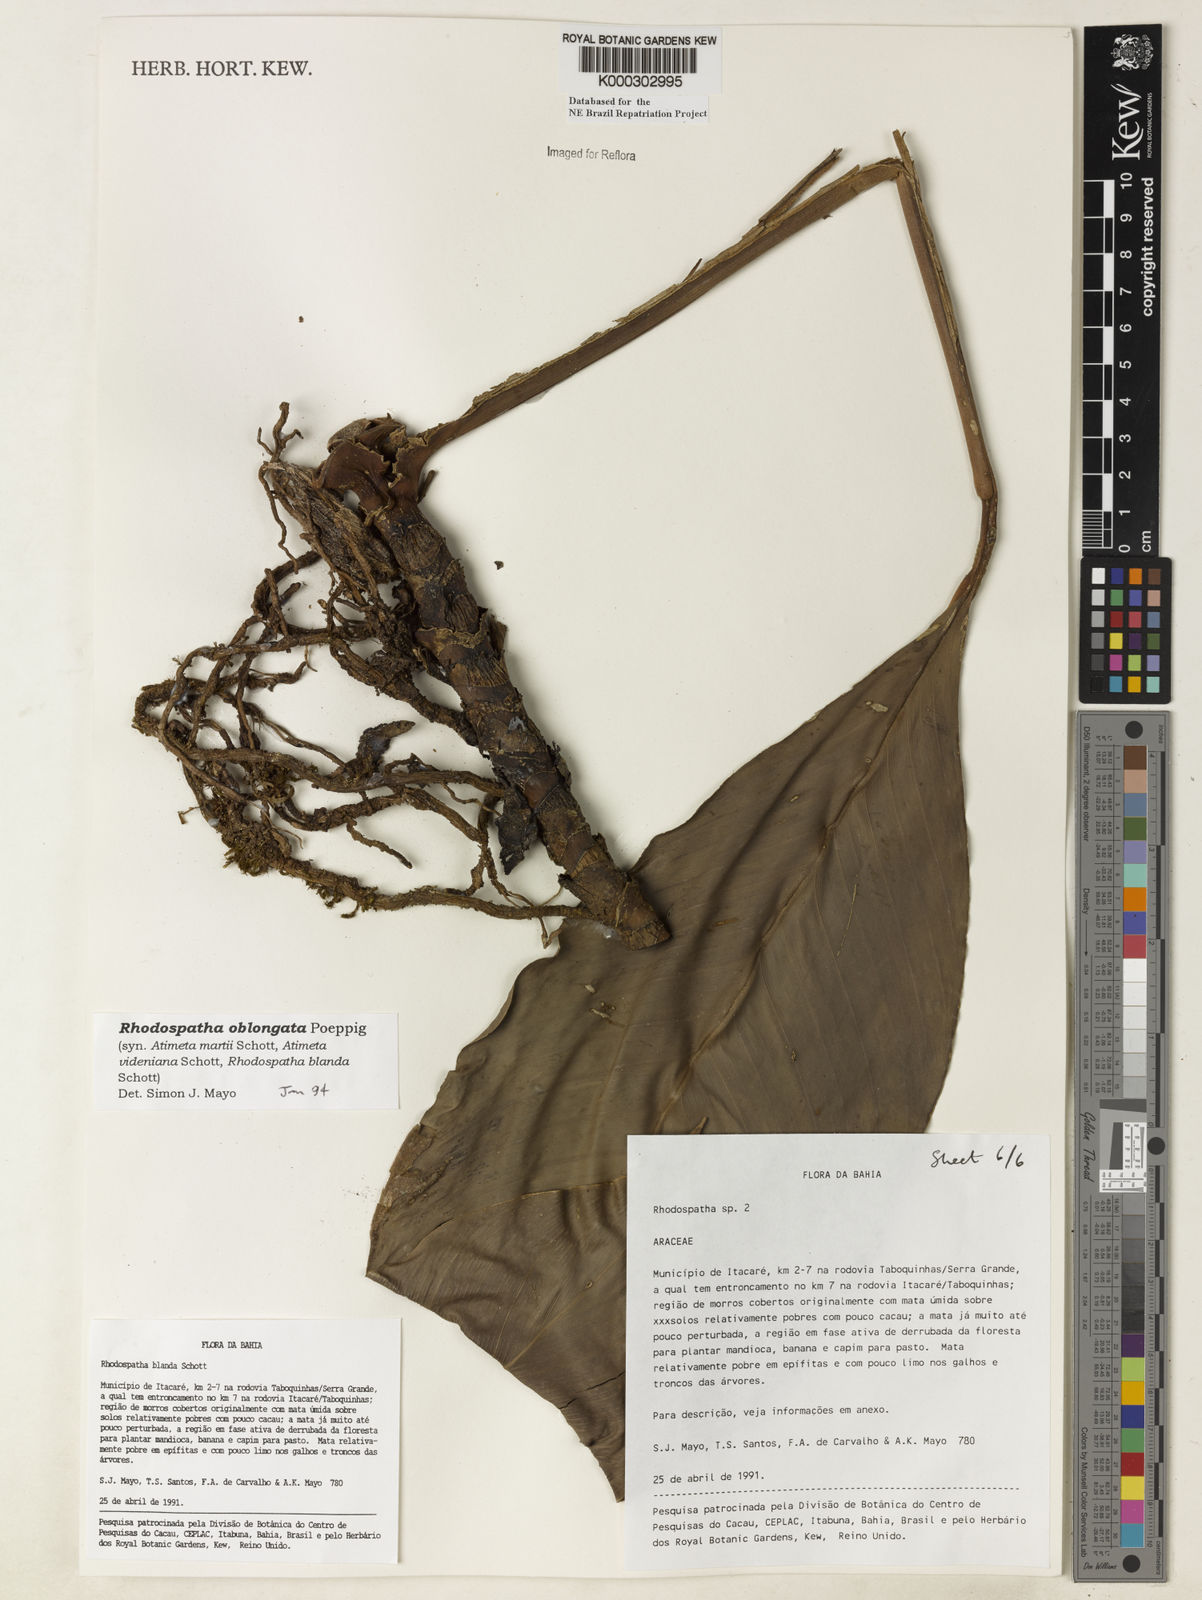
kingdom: Plantae
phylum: Tracheophyta
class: Liliopsida
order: Alismatales
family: Araceae
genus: Rhodospatha
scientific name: Rhodospatha oblongata
